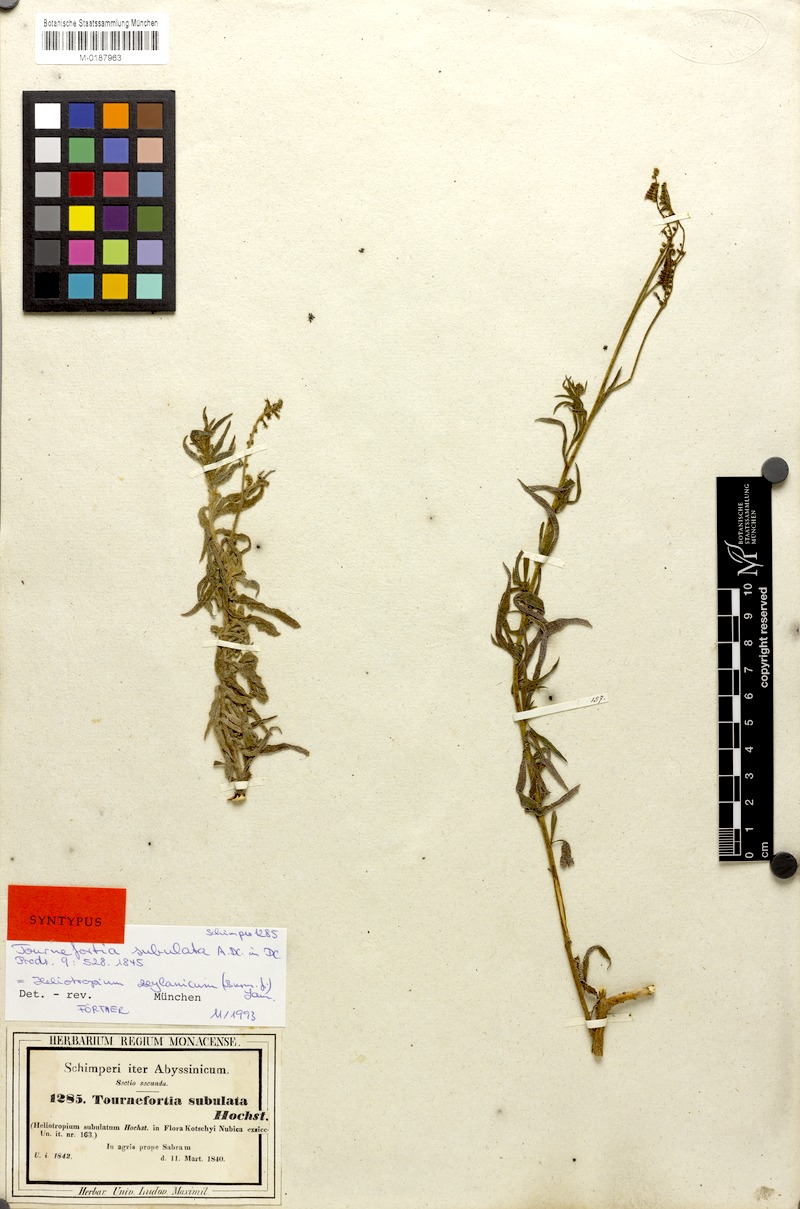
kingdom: Plantae
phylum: Tracheophyta
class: Magnoliopsida
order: Boraginales
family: Heliotropiaceae
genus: Heliotropium
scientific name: Heliotropium zeylanicum
